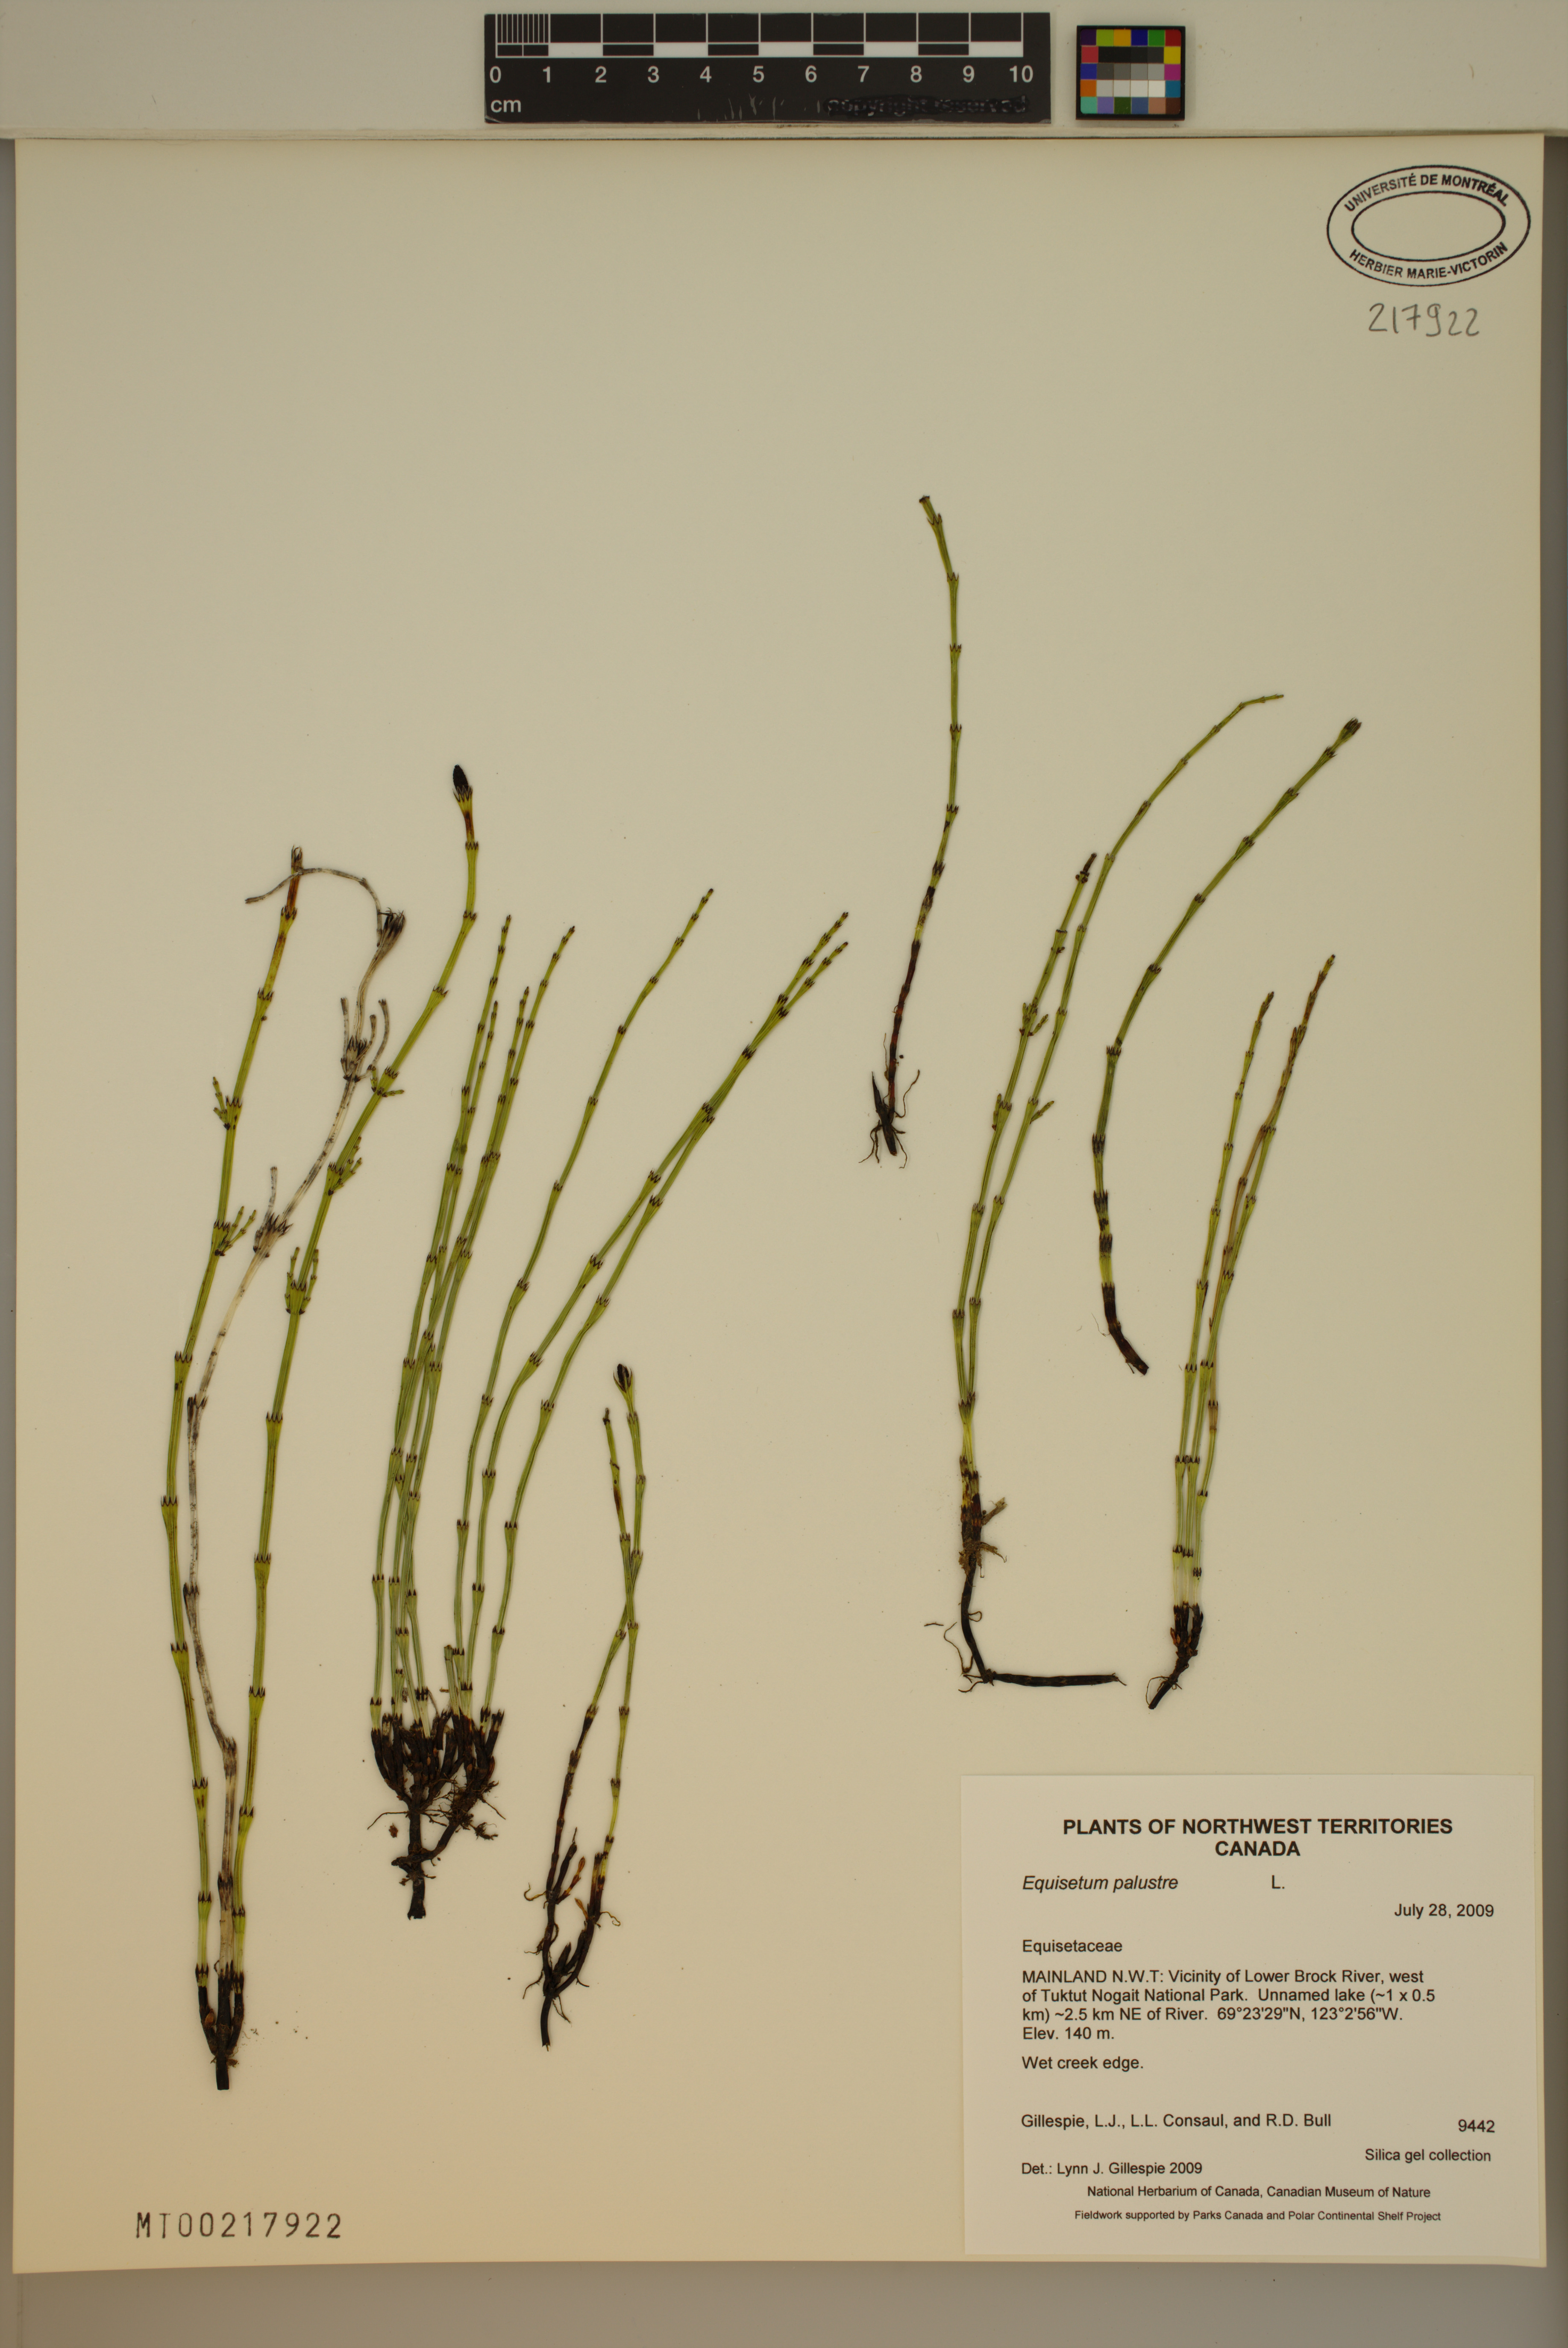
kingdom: Plantae
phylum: Tracheophyta
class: Polypodiopsida
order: Equisetales
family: Equisetaceae
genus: Equisetum
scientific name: Equisetum palustre
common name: Marsh horsetail
